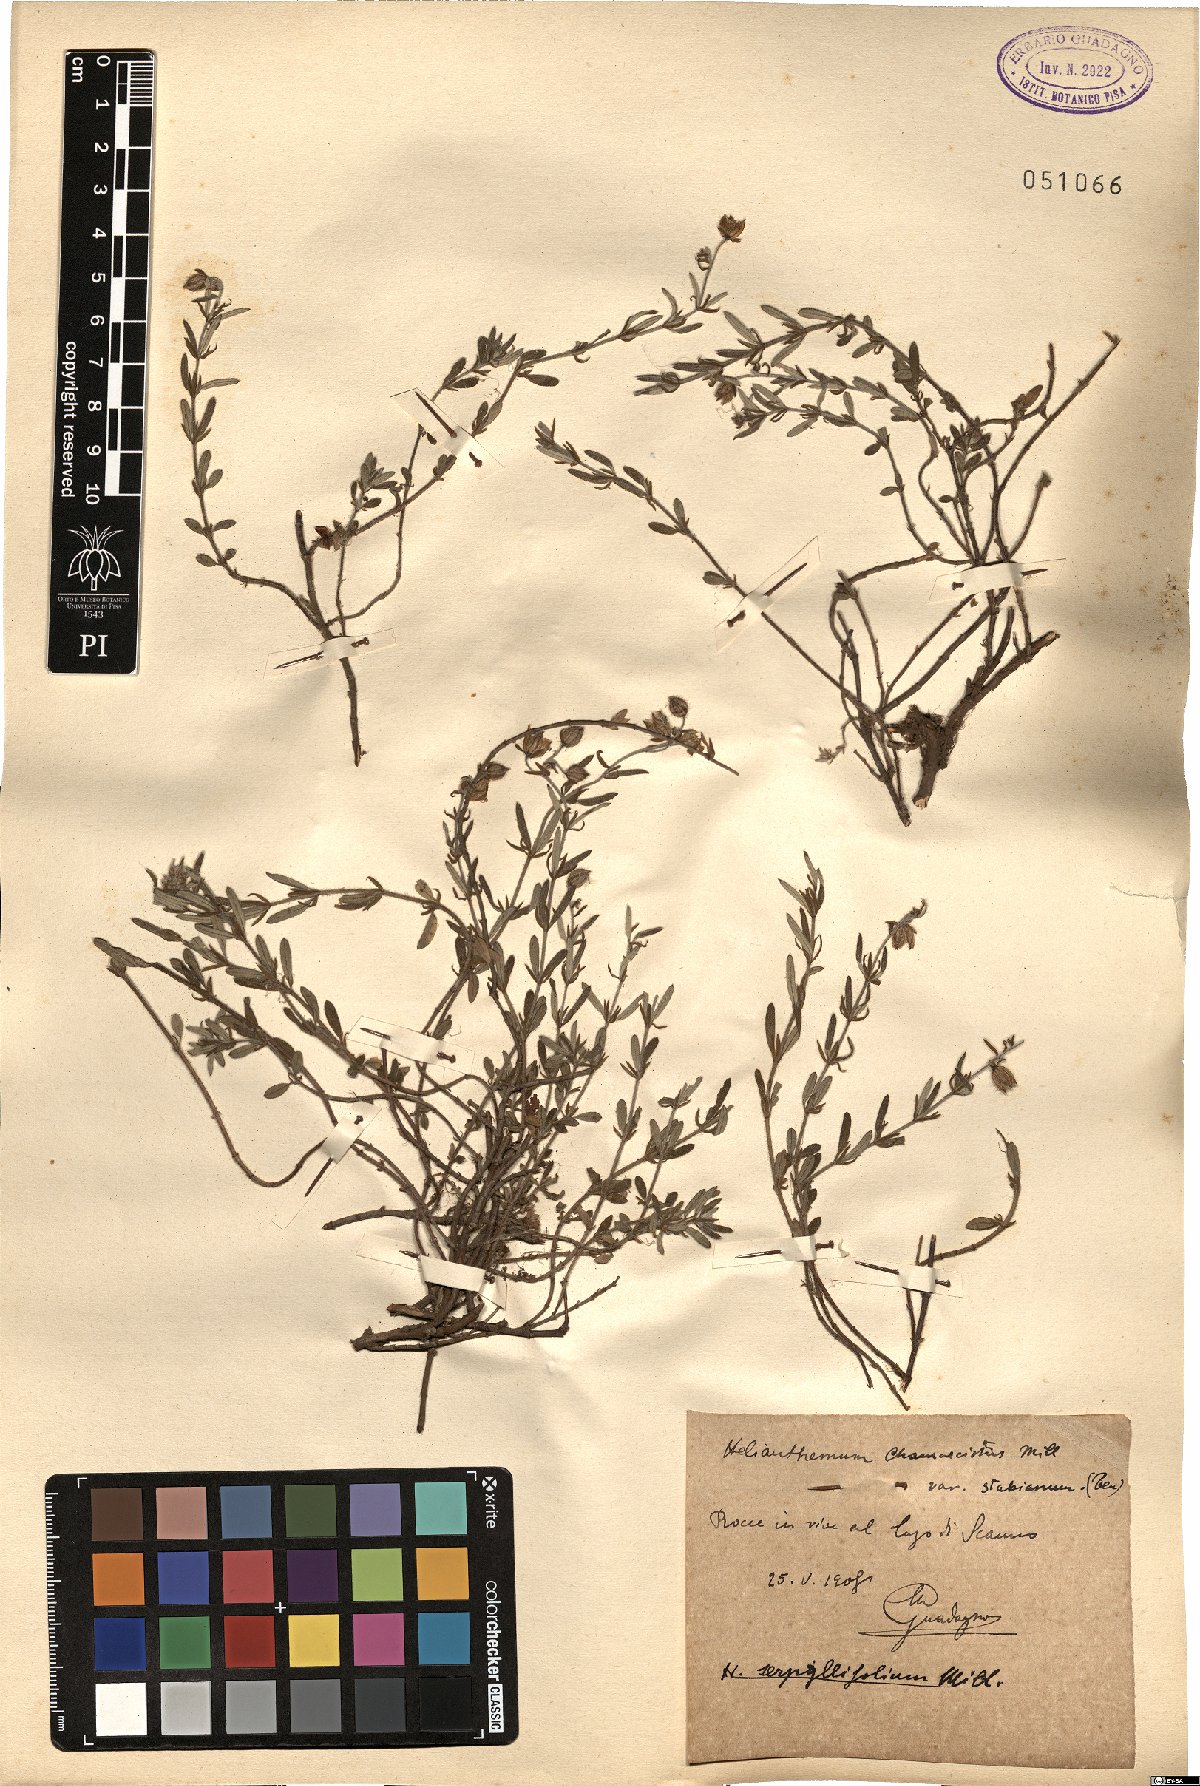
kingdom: Plantae
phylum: Tracheophyta
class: Magnoliopsida
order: Malvales
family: Cistaceae
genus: Helianthemum
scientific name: Helianthemum nummularium
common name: Common rock-rose
